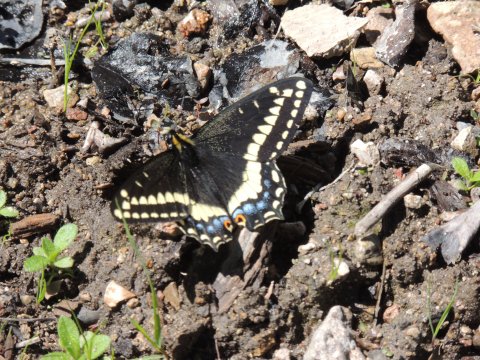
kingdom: Animalia
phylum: Arthropoda
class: Insecta
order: Lepidoptera
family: Papilionidae
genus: Papilio
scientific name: Papilio indra
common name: Indra Swallowtail
